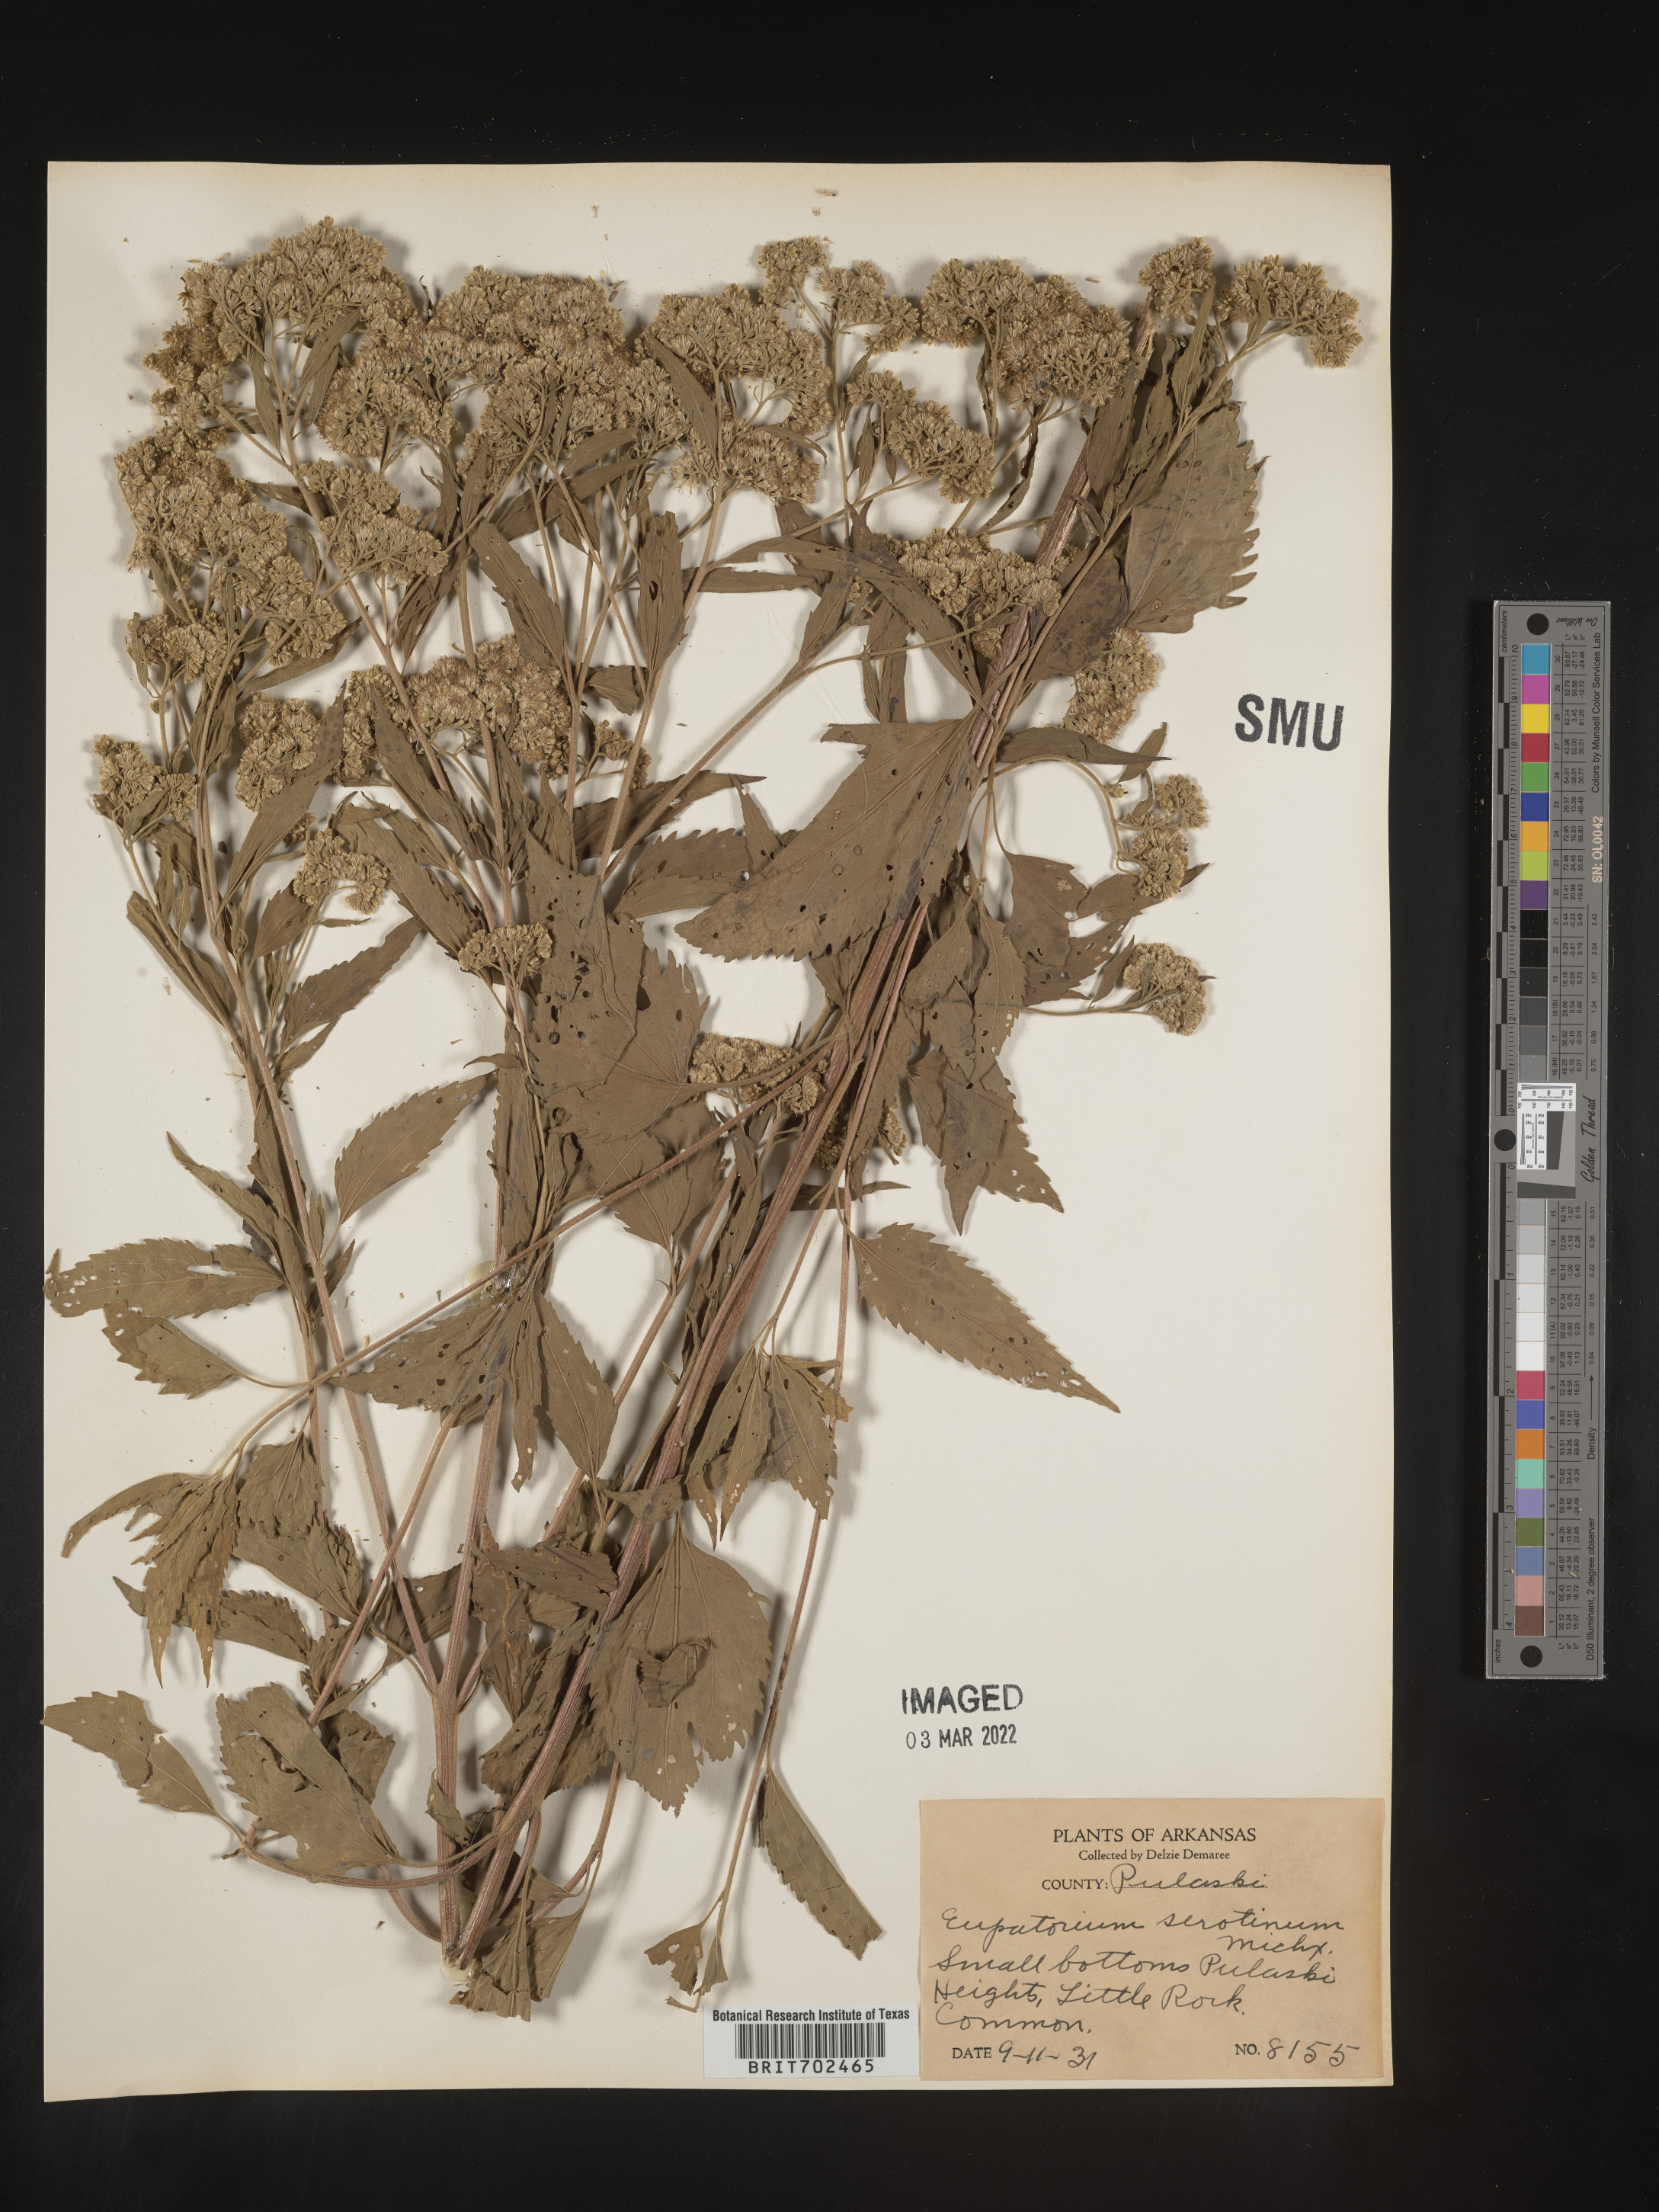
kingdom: Plantae
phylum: Tracheophyta
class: Magnoliopsida
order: Asterales
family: Asteraceae
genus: Eupatorium
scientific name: Eupatorium serotinum
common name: Late boneset
